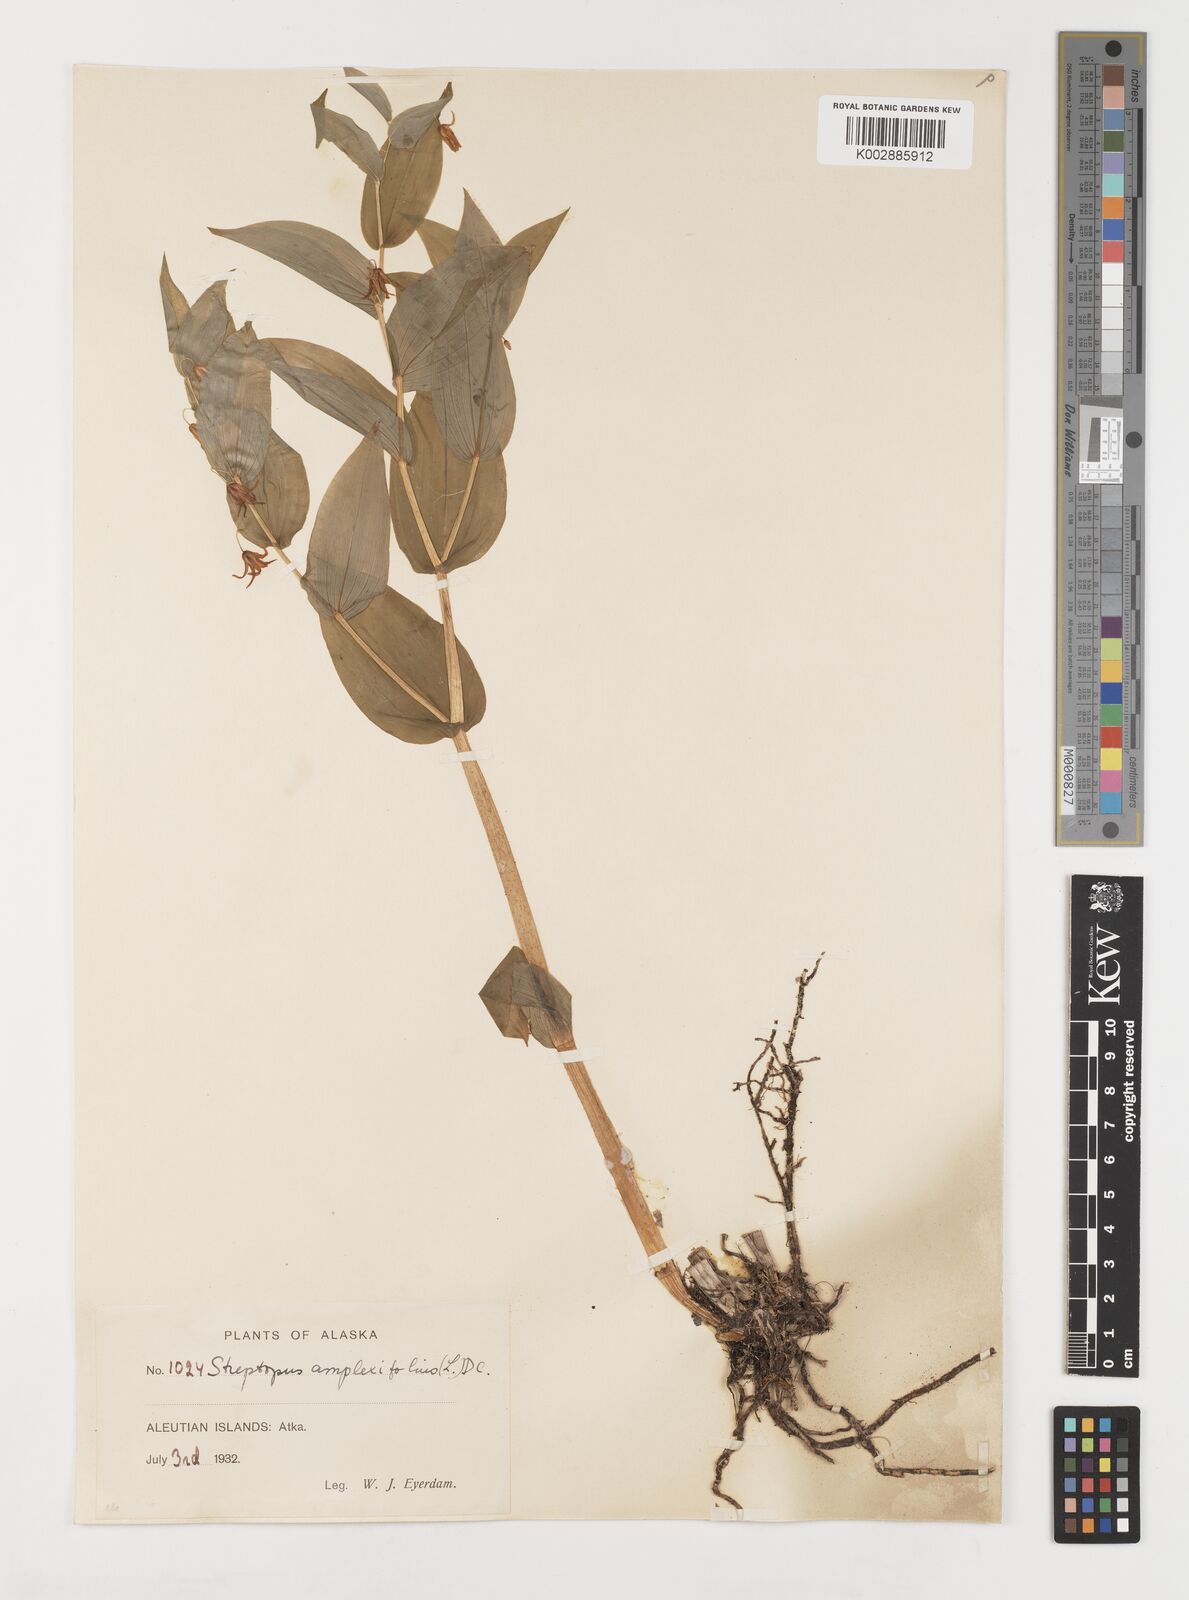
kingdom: Plantae
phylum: Tracheophyta
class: Liliopsida
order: Liliales
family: Liliaceae
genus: Streptopus
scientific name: Streptopus amplexifolius
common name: Clasp twisted stalk
